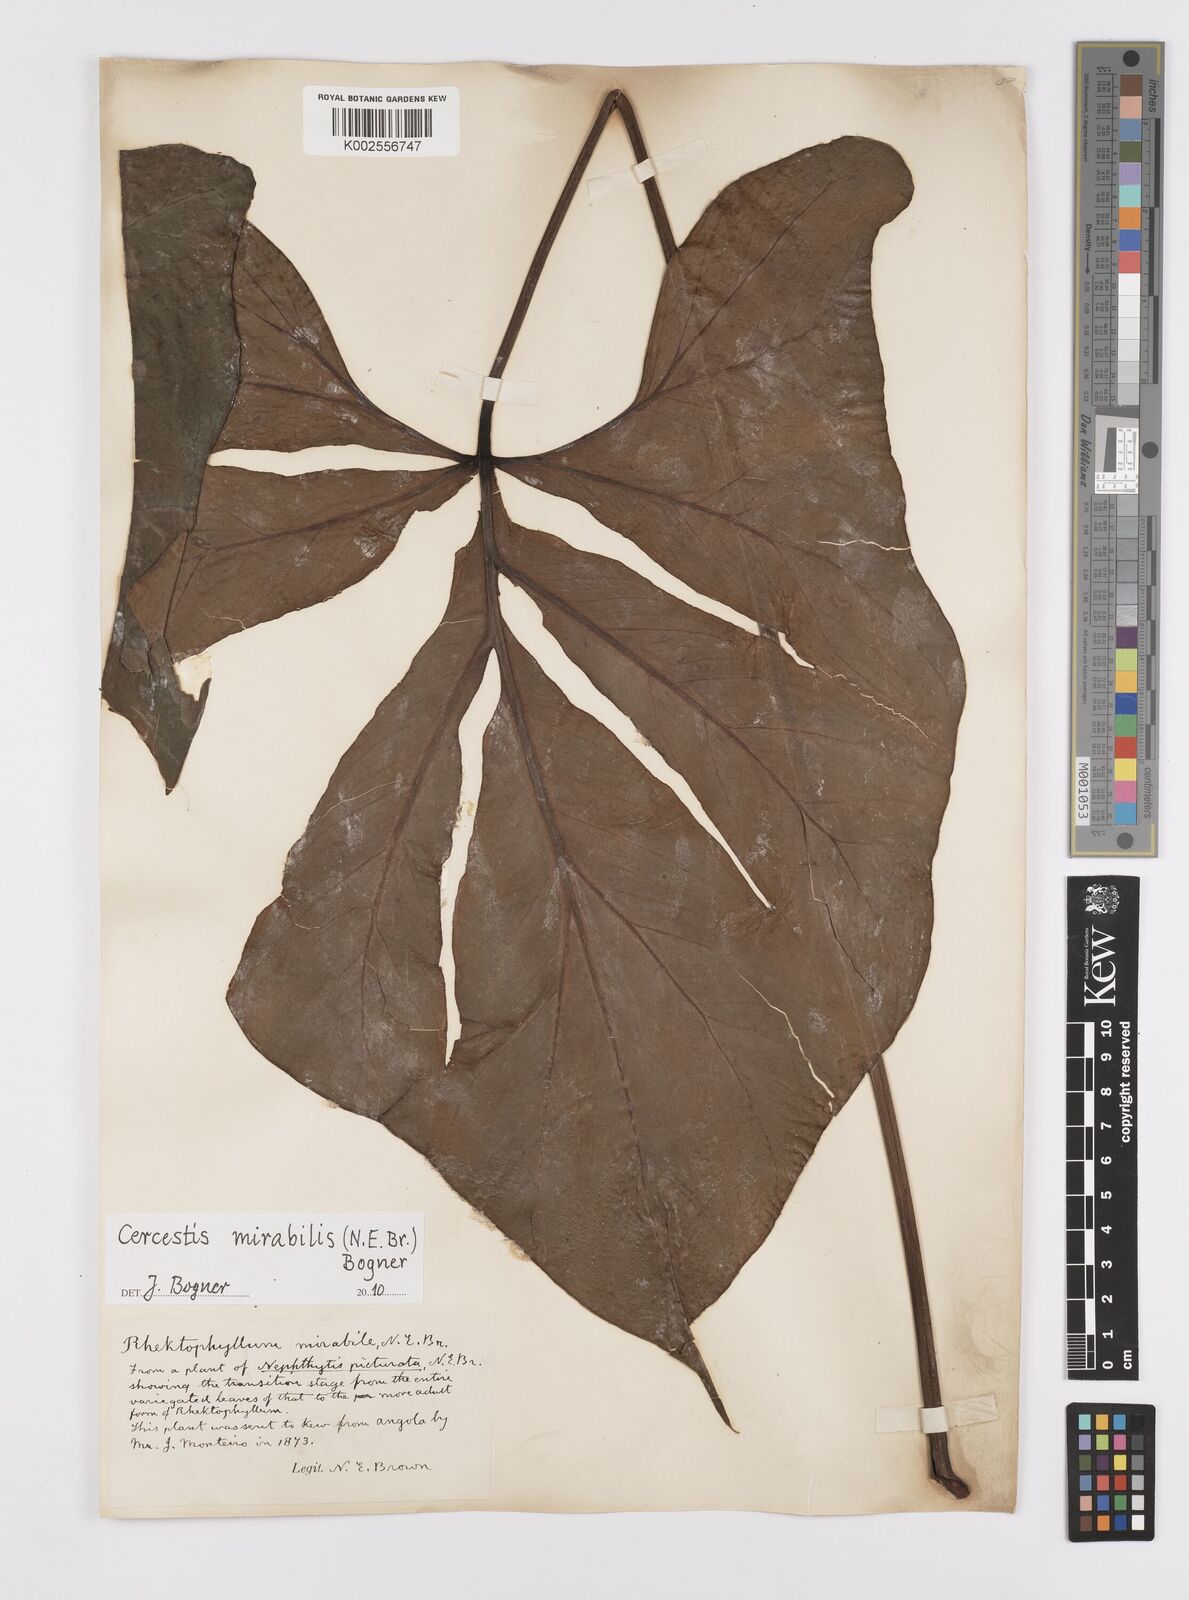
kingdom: Plantae
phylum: Tracheophyta
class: Liliopsida
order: Alismatales
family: Araceae
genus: Cercestis
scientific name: Cercestis mirabilis
